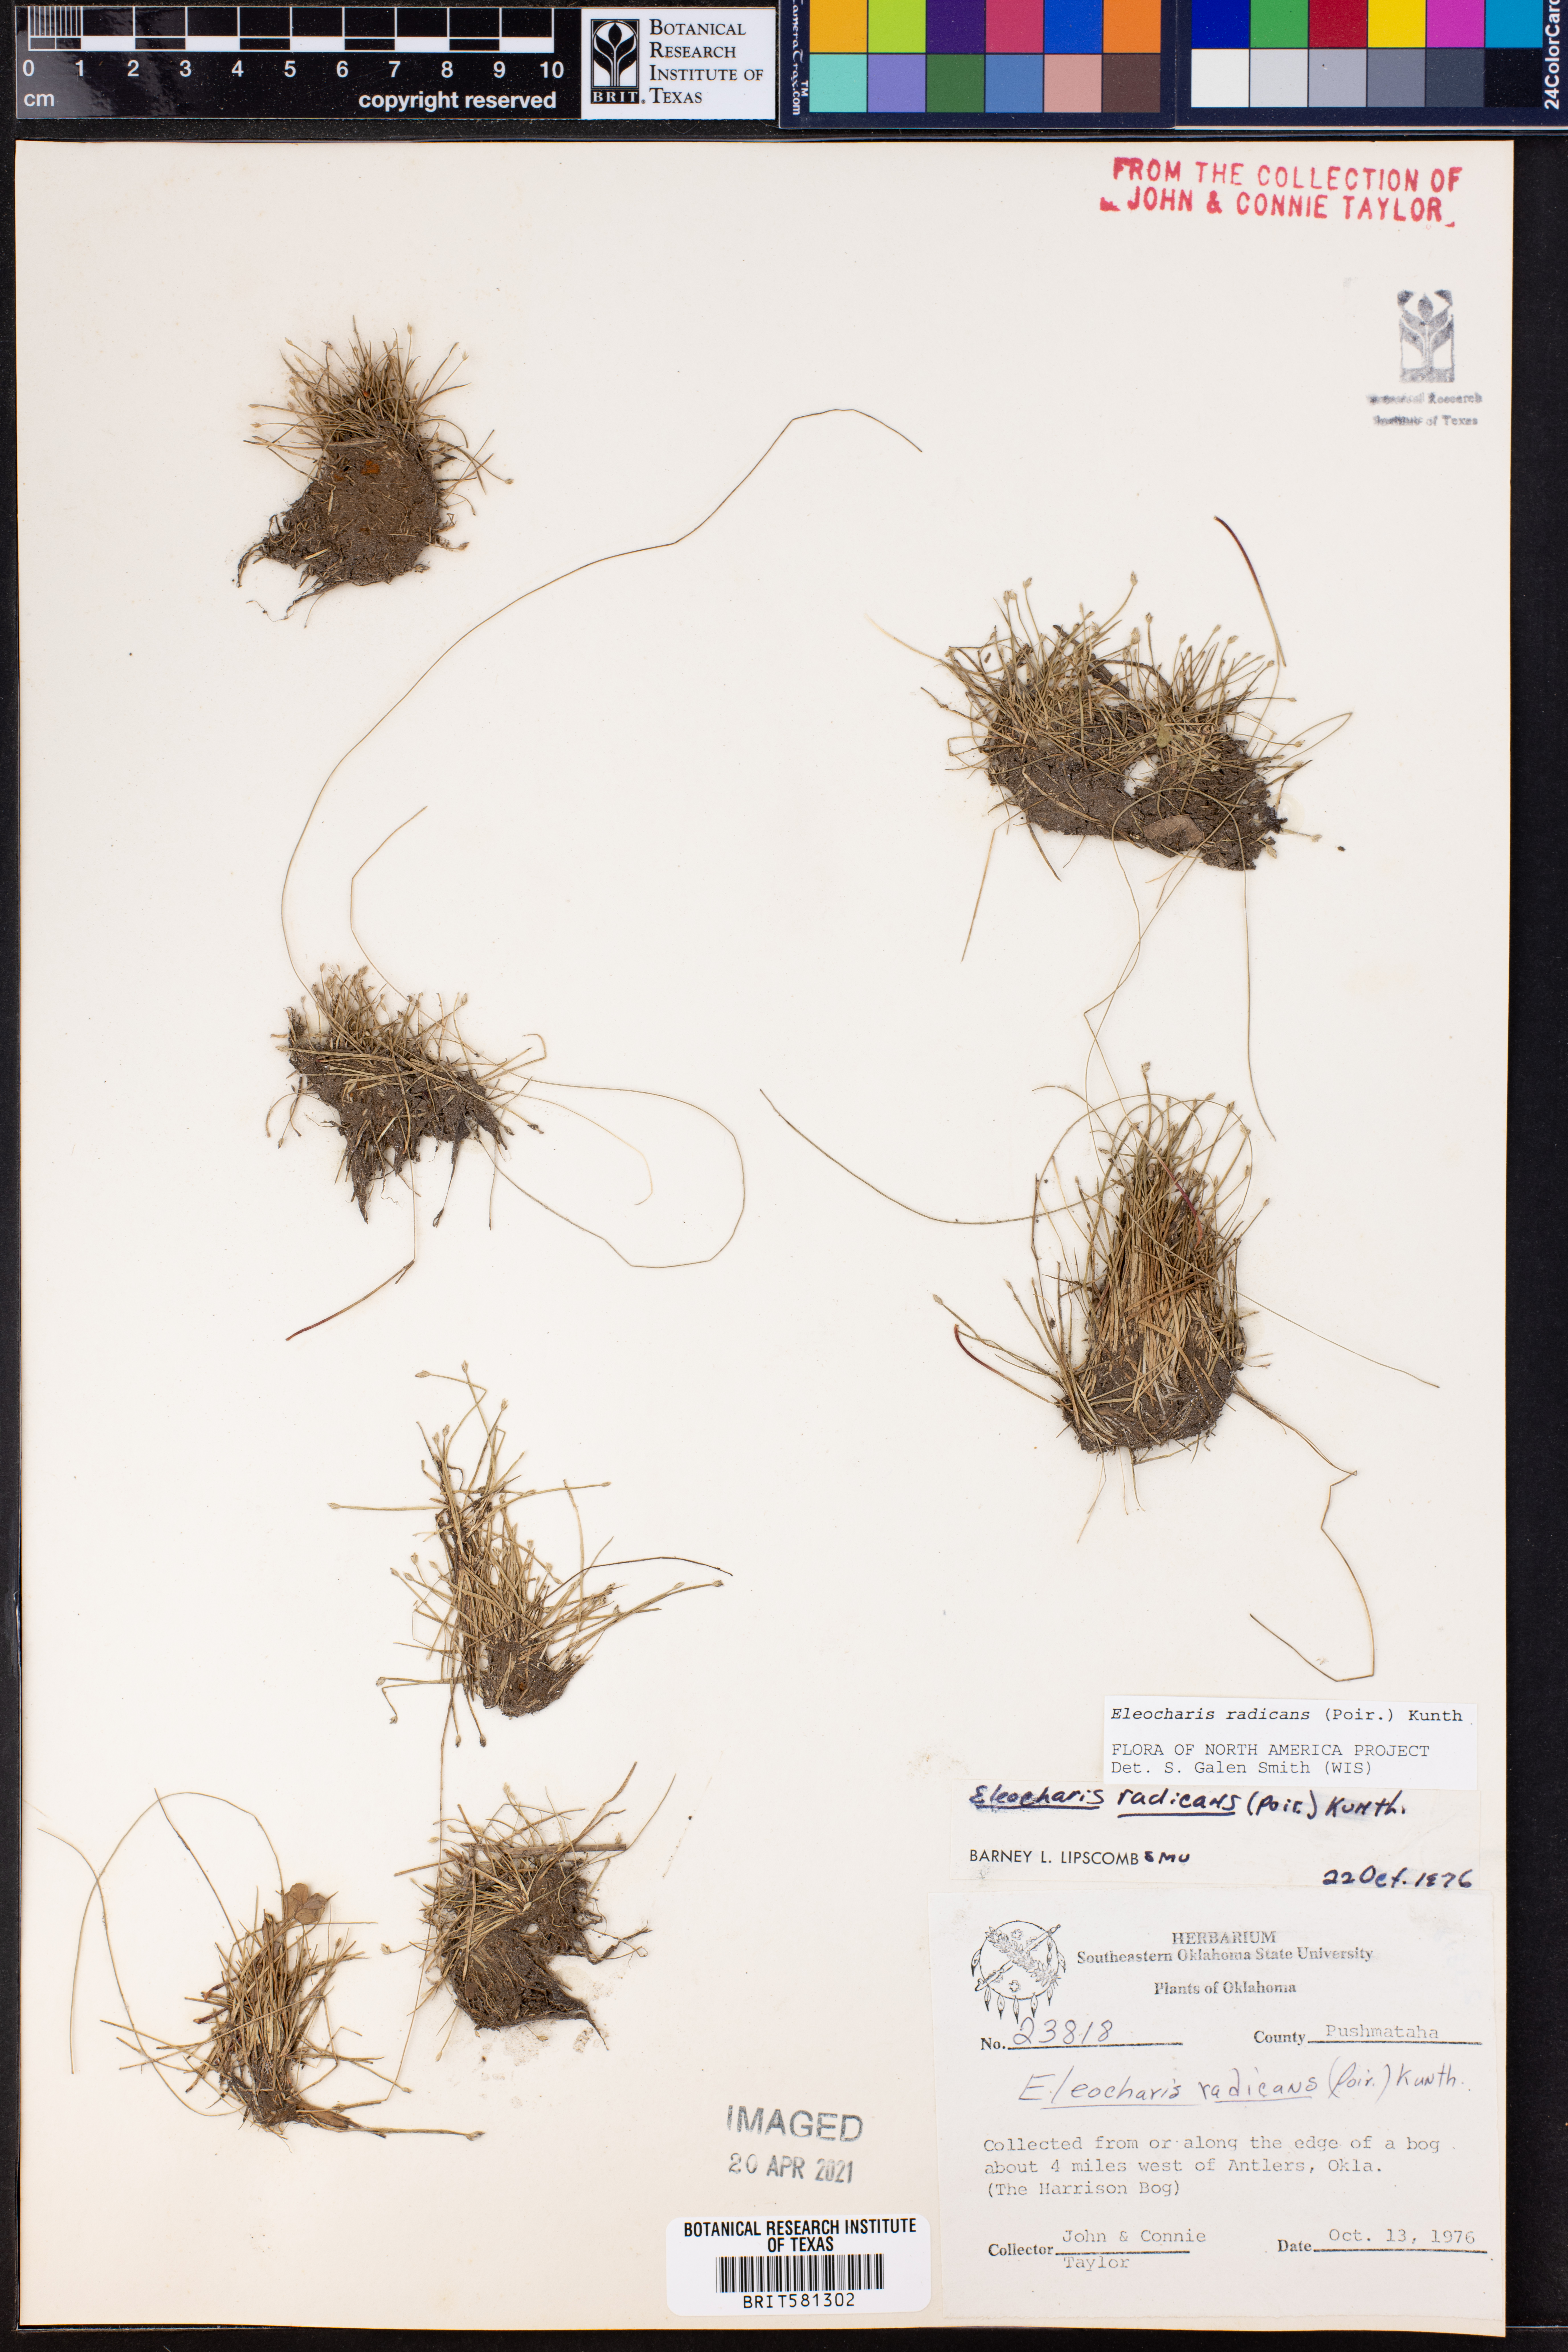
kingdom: Plantae
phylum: Tracheophyta
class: Liliopsida
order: Poales
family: Cyperaceae
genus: Eleocharis
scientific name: Eleocharis exigua
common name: Spikesedge
